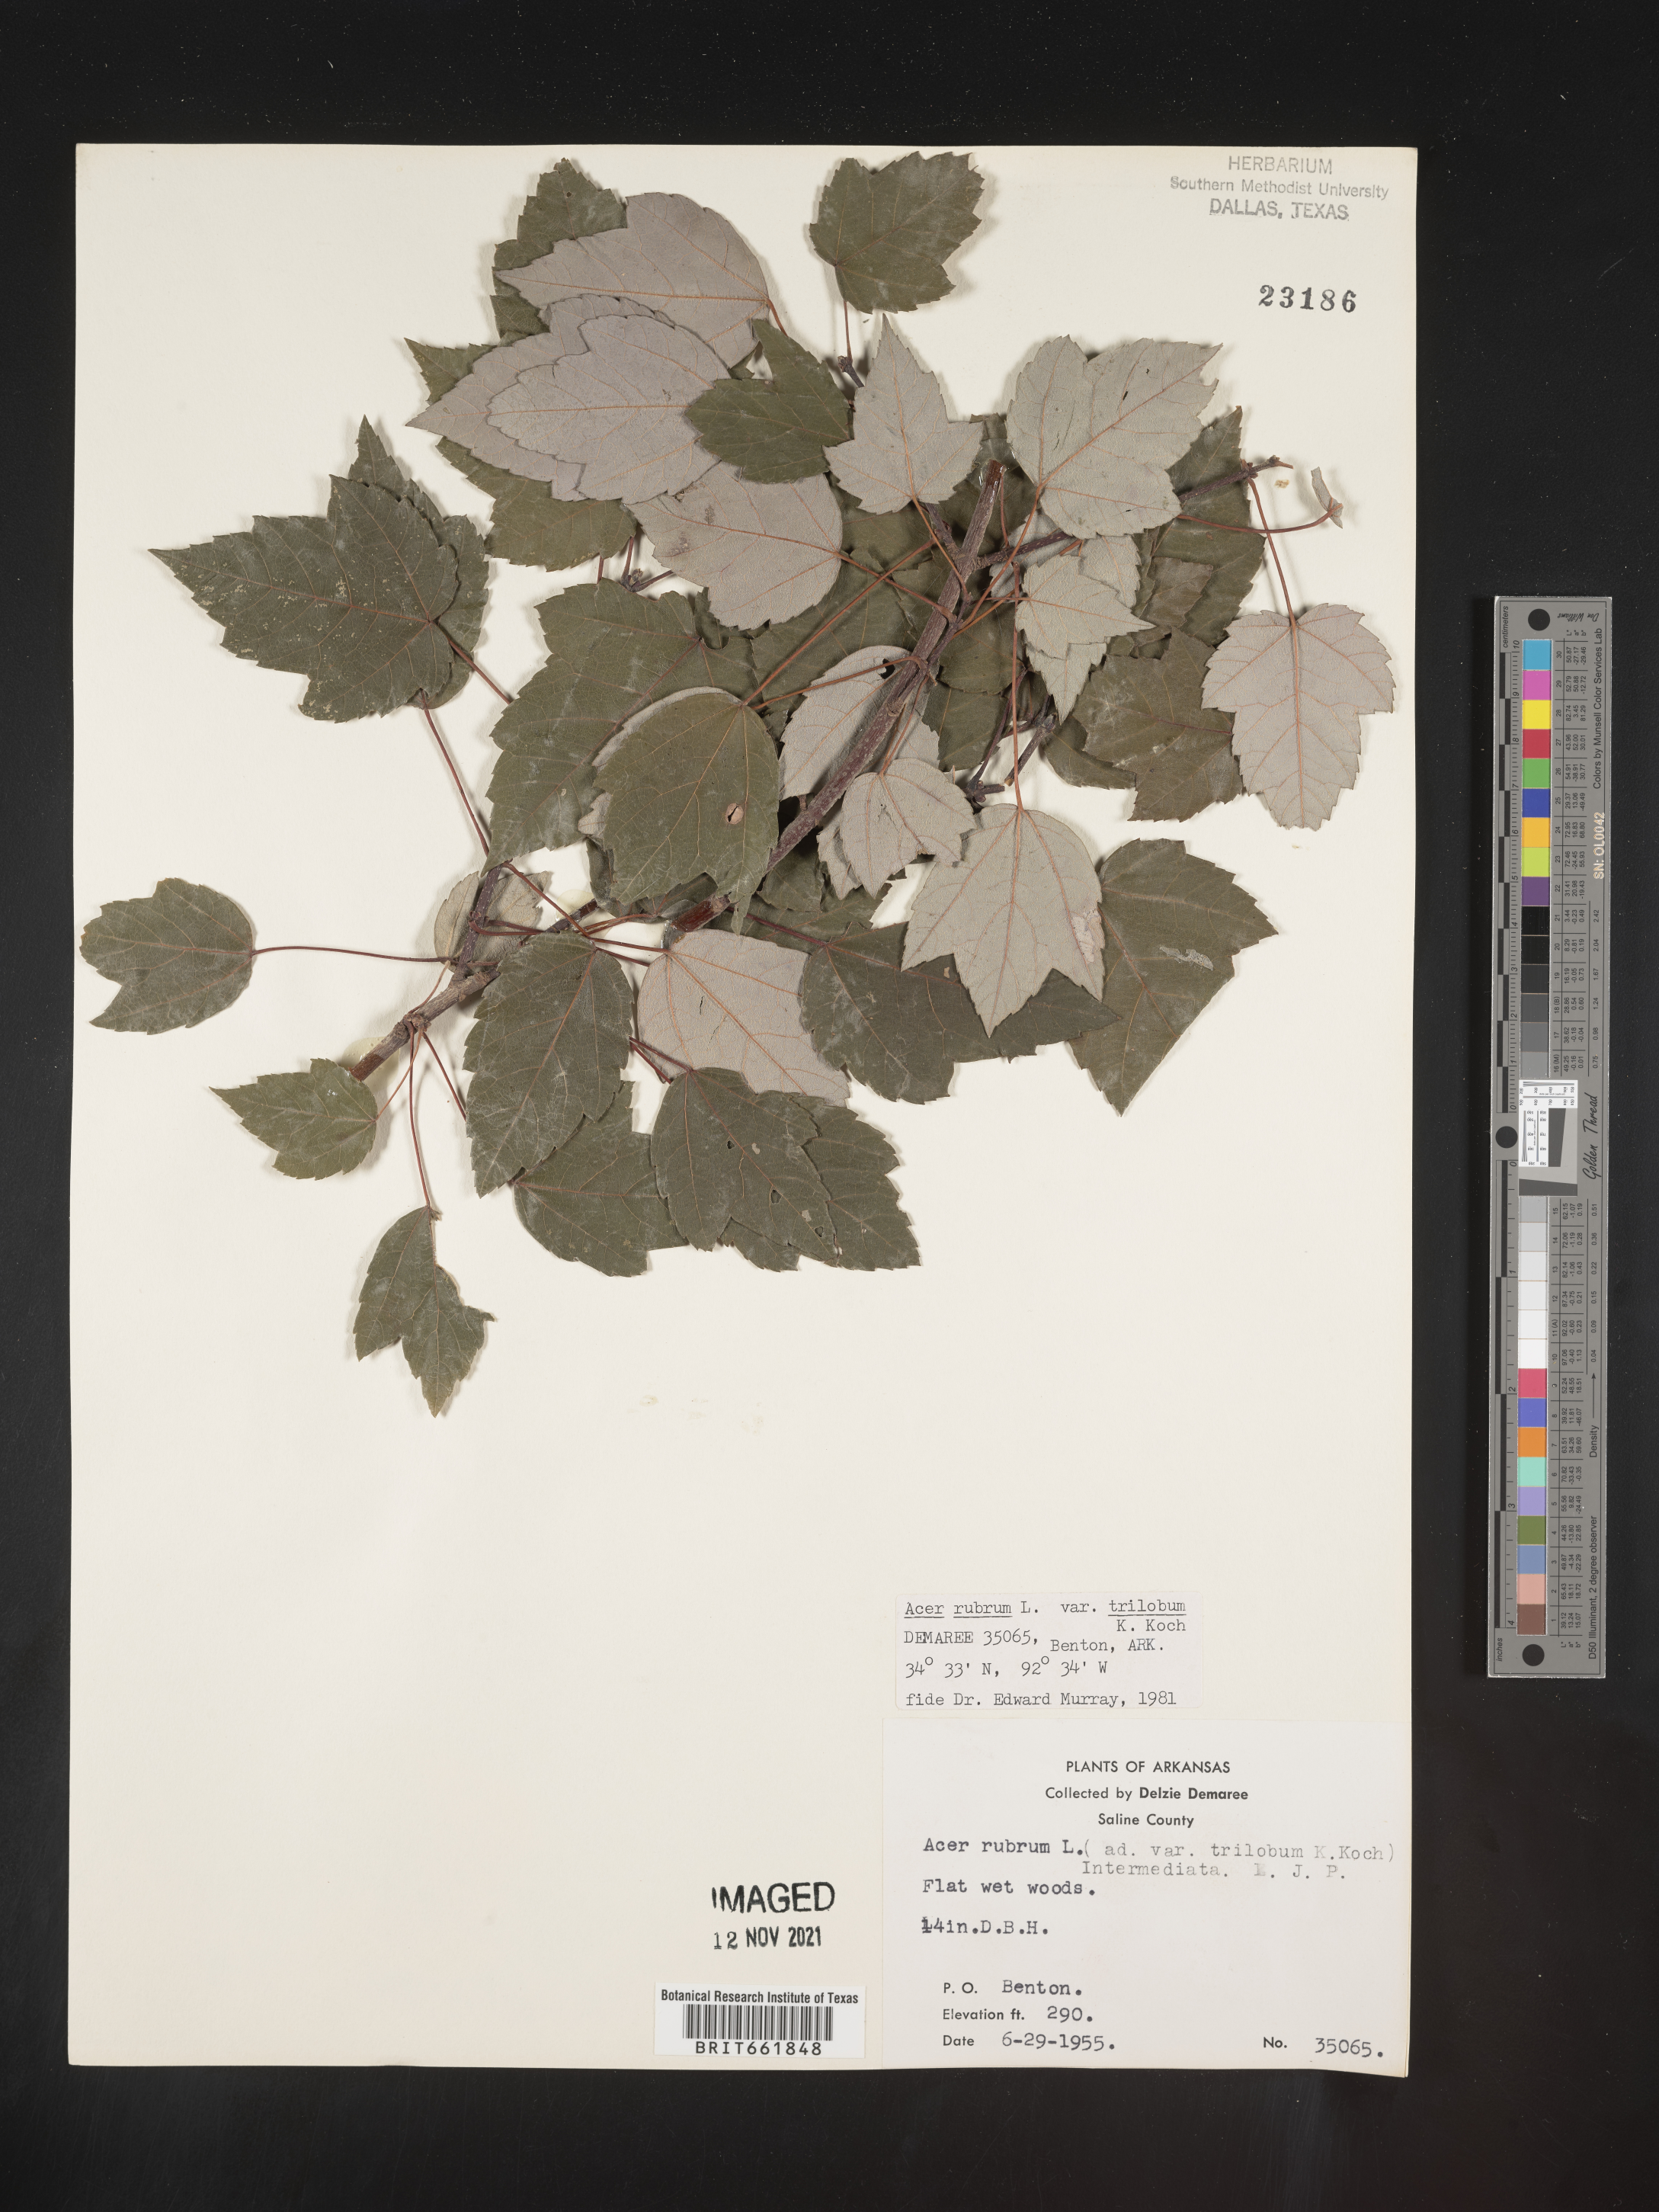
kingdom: Plantae
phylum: Tracheophyta
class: Magnoliopsida
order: Sapindales
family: Sapindaceae
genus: Acer
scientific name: Acer rubrum
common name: Red maple
